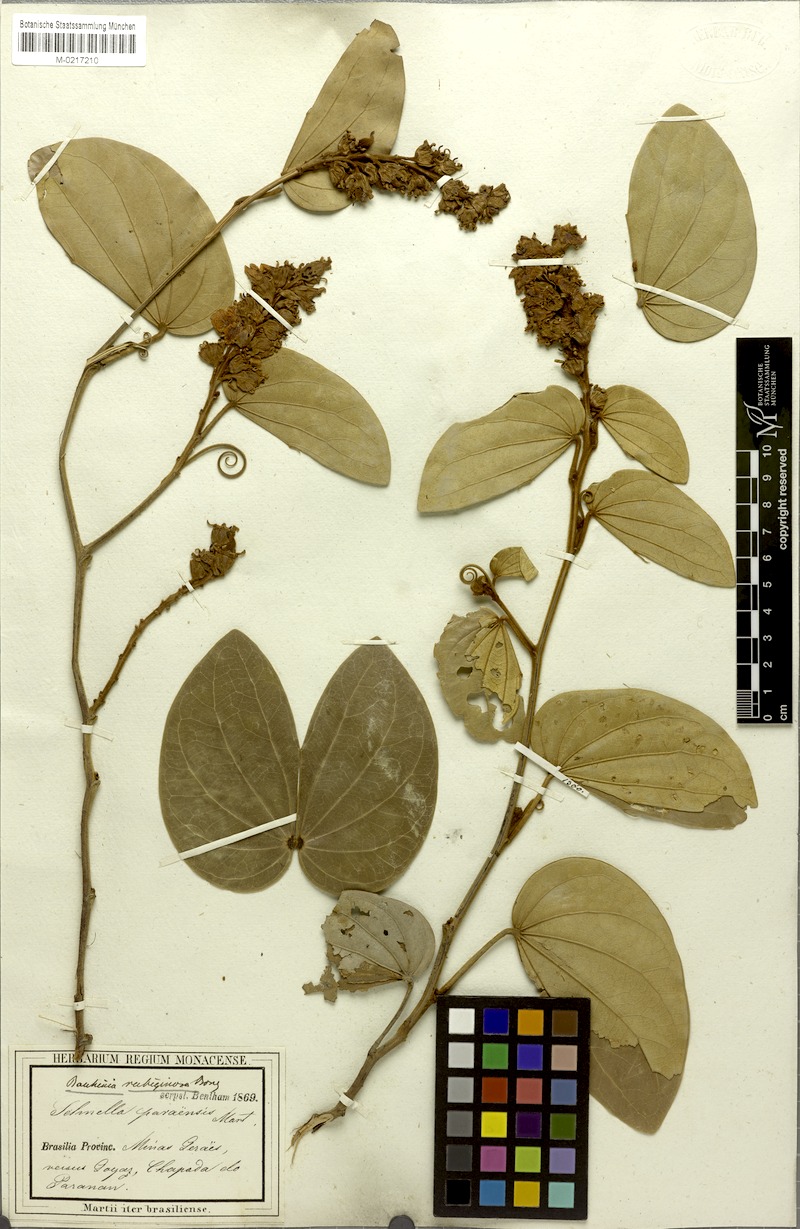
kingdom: Plantae
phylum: Tracheophyta
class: Magnoliopsida
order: Fabales
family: Fabaceae
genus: Schnella
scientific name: Schnella outimouta
